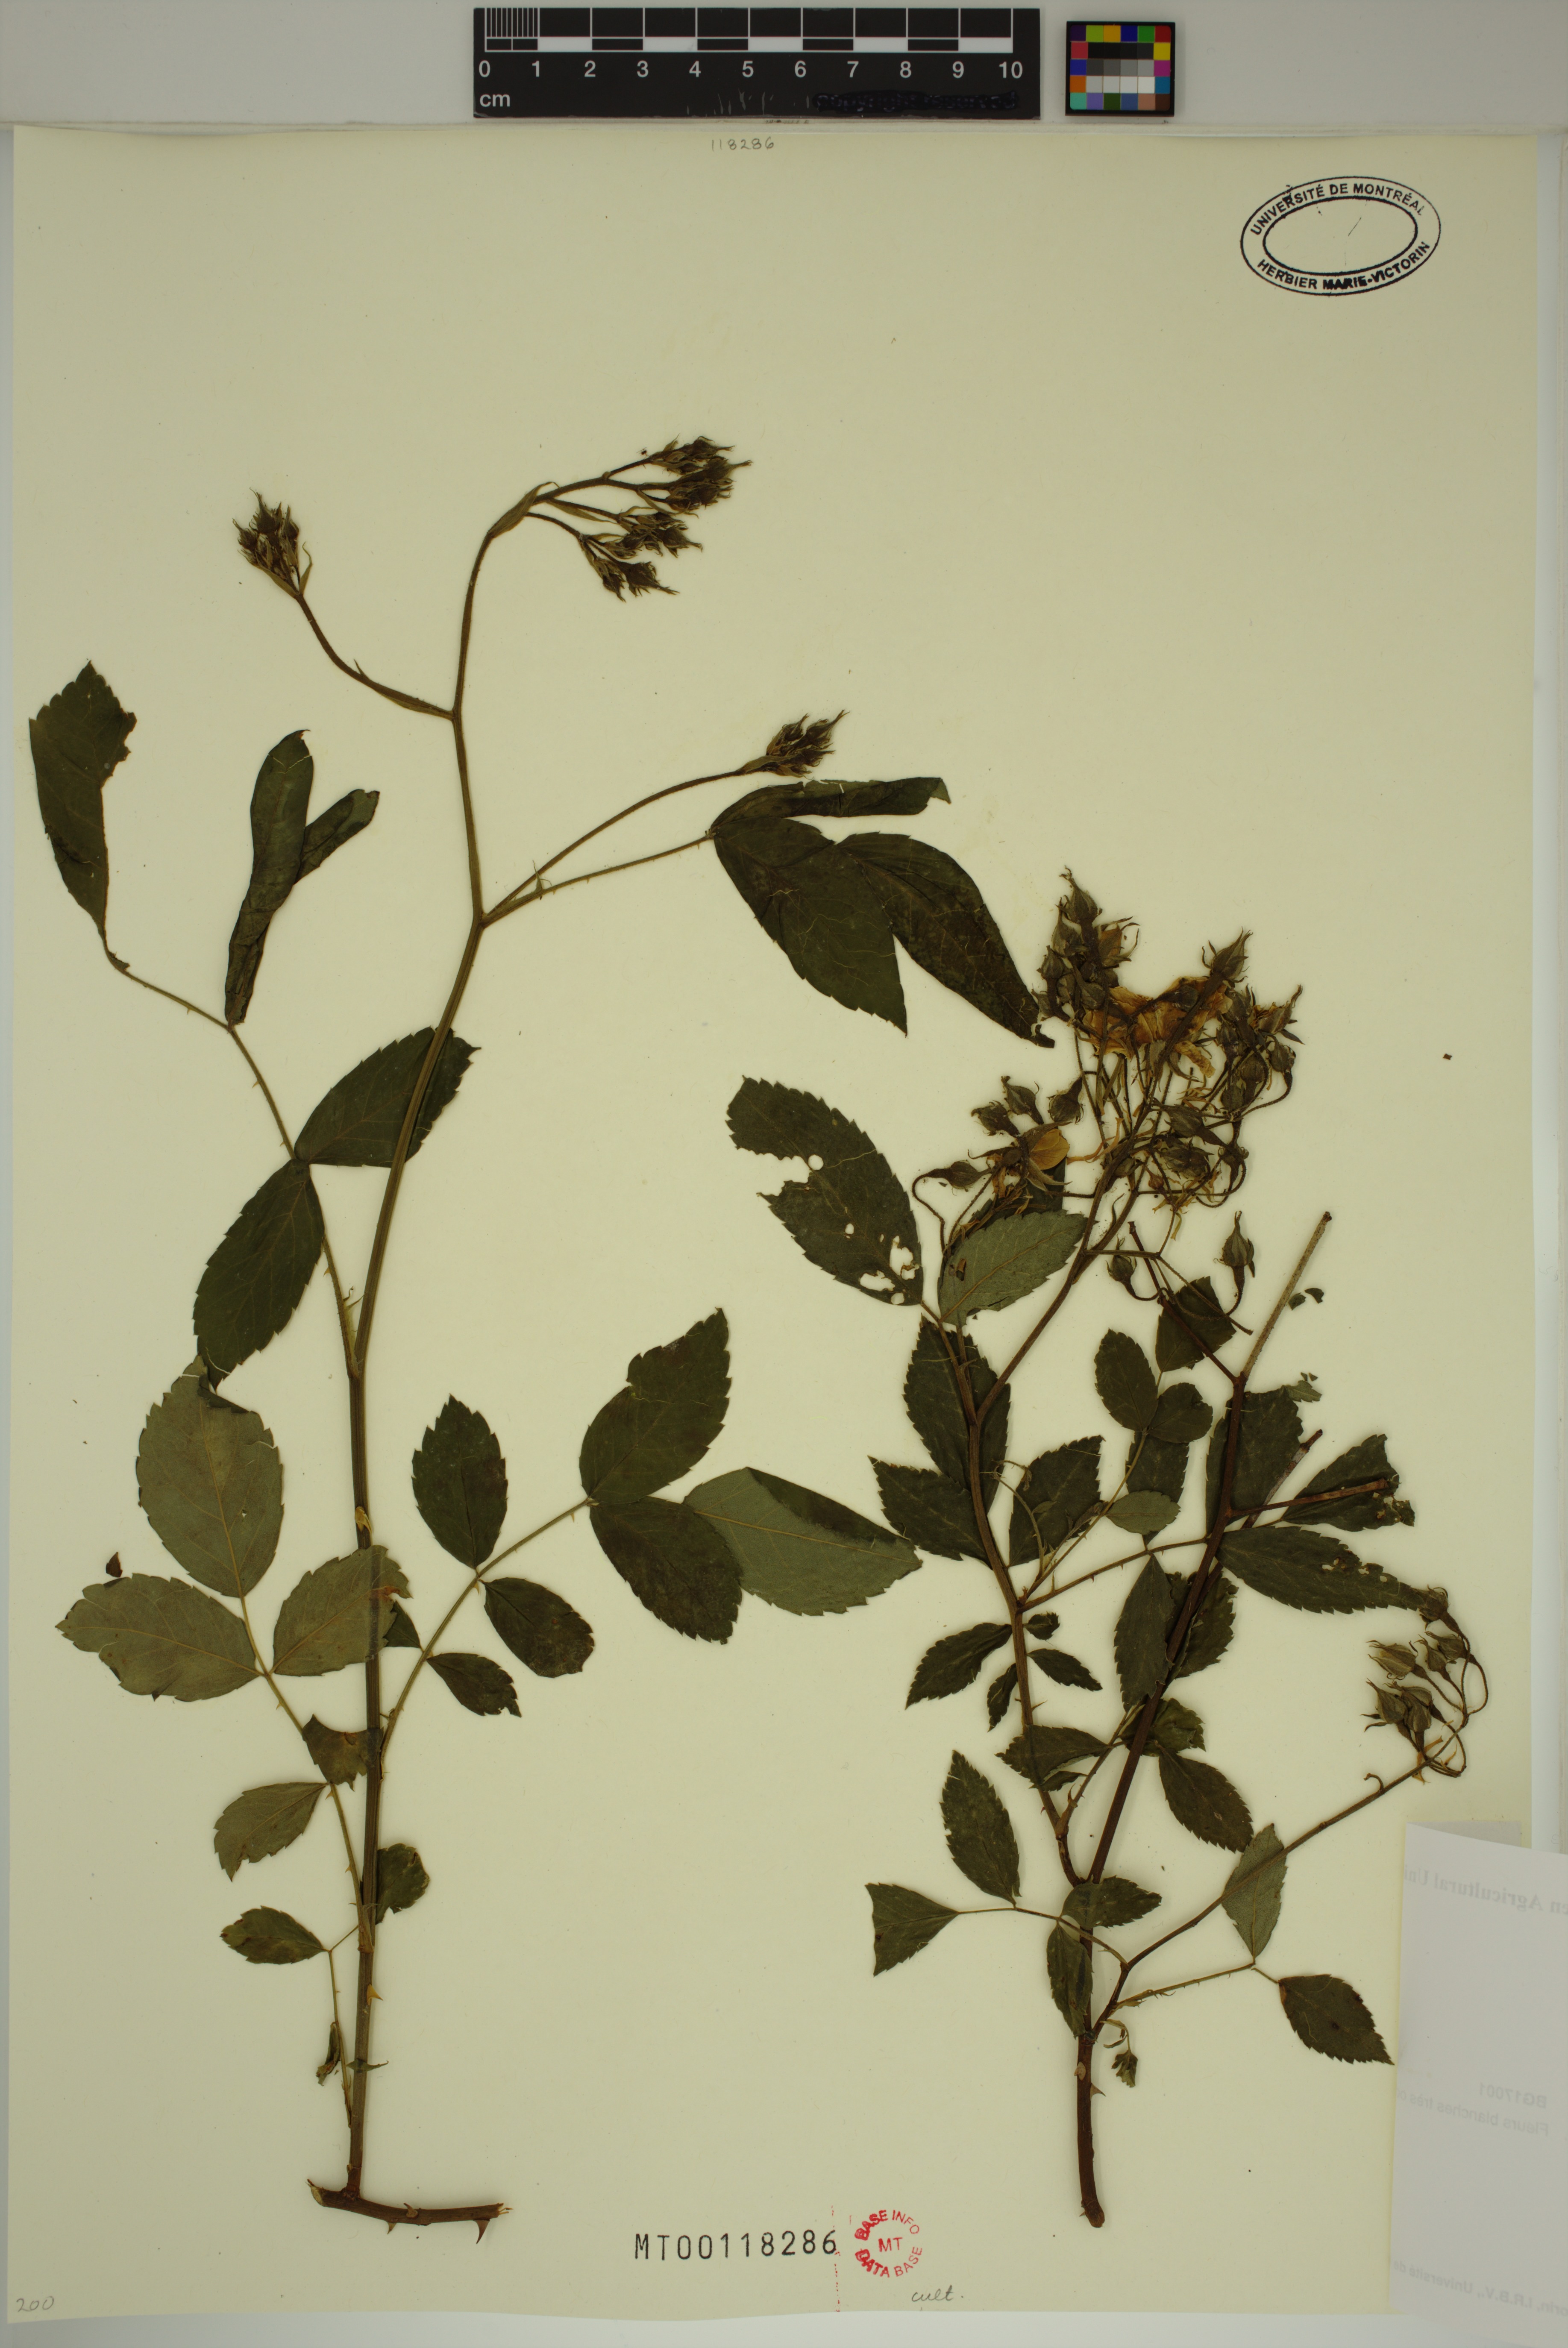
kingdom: Plantae
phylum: Tracheophyta
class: Magnoliopsida
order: Rosales
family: Rosaceae
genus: Rosa
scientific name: Rosa rubus
